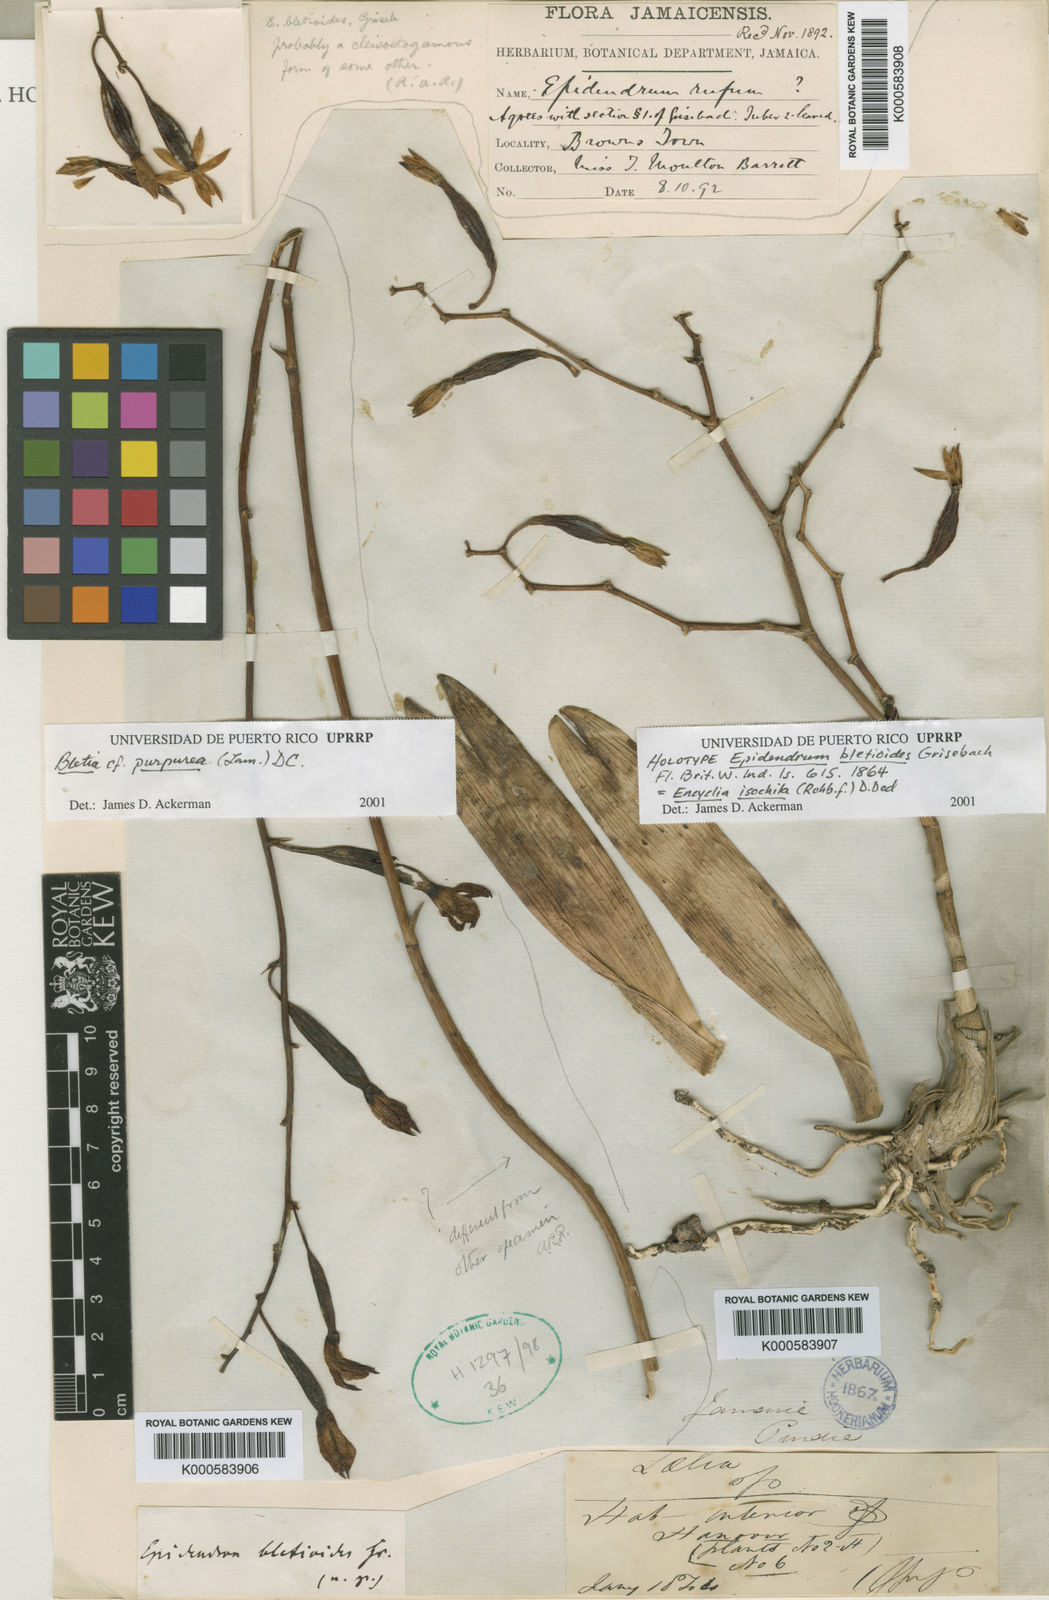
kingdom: Plantae
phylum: Tracheophyta
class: Liliopsida
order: Asparagales
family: Orchidaceae
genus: Encyclia
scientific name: Encyclia
